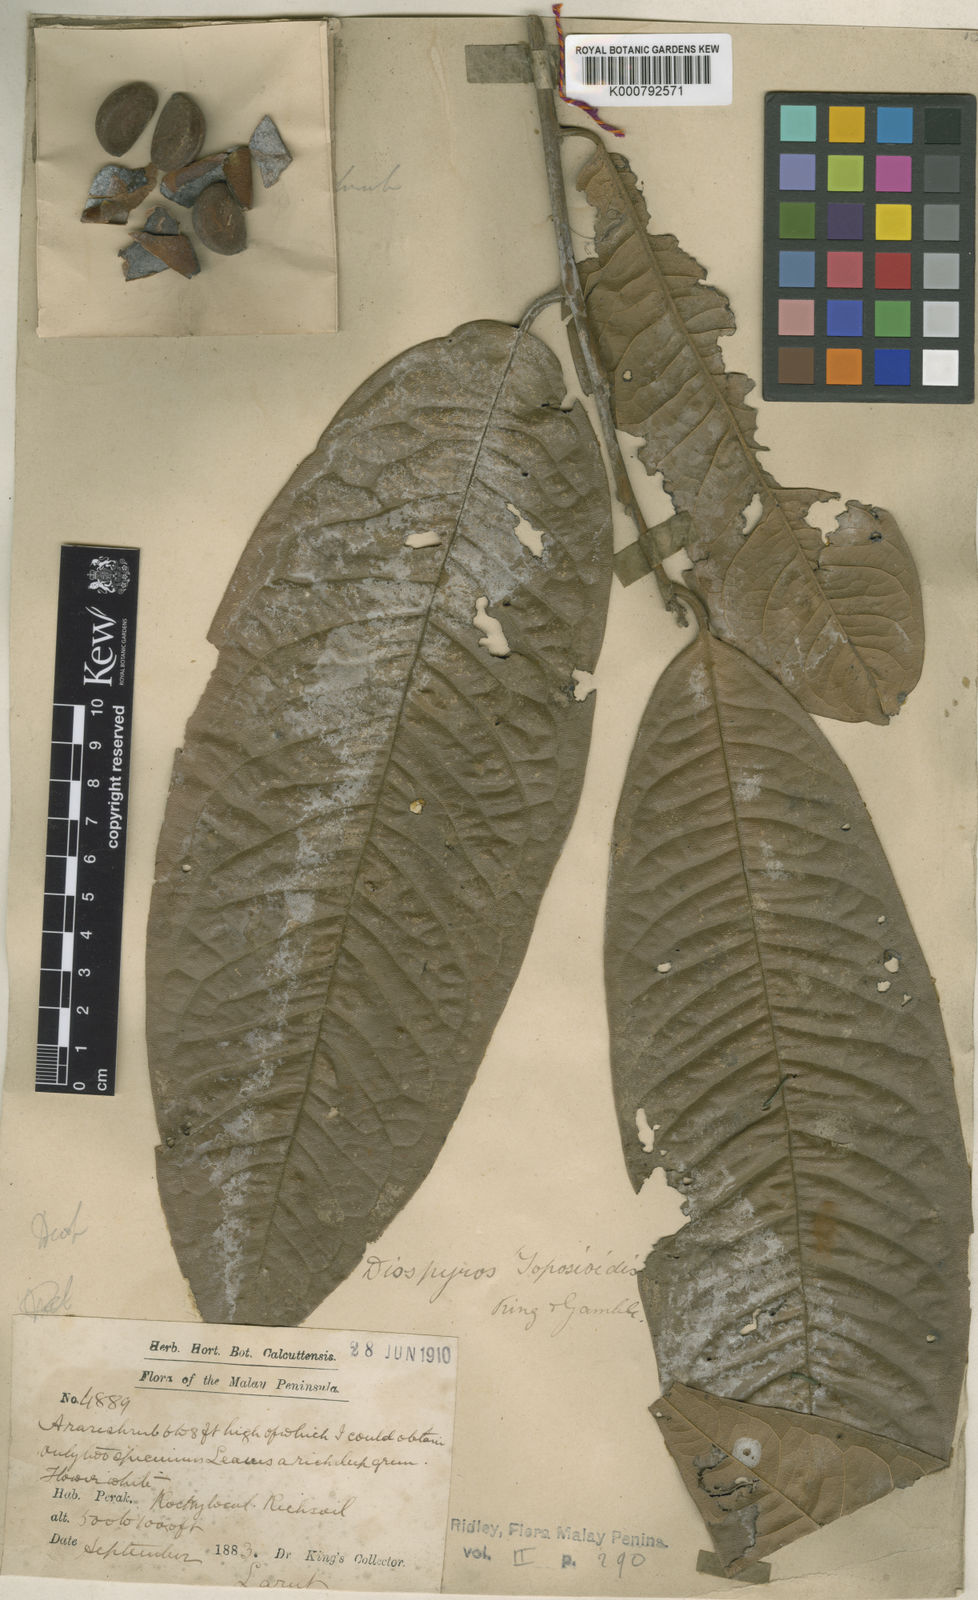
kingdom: Plantae
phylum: Tracheophyta
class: Magnoliopsida
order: Ericales
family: Ebenaceae
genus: Diospyros
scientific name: Diospyros toposia
